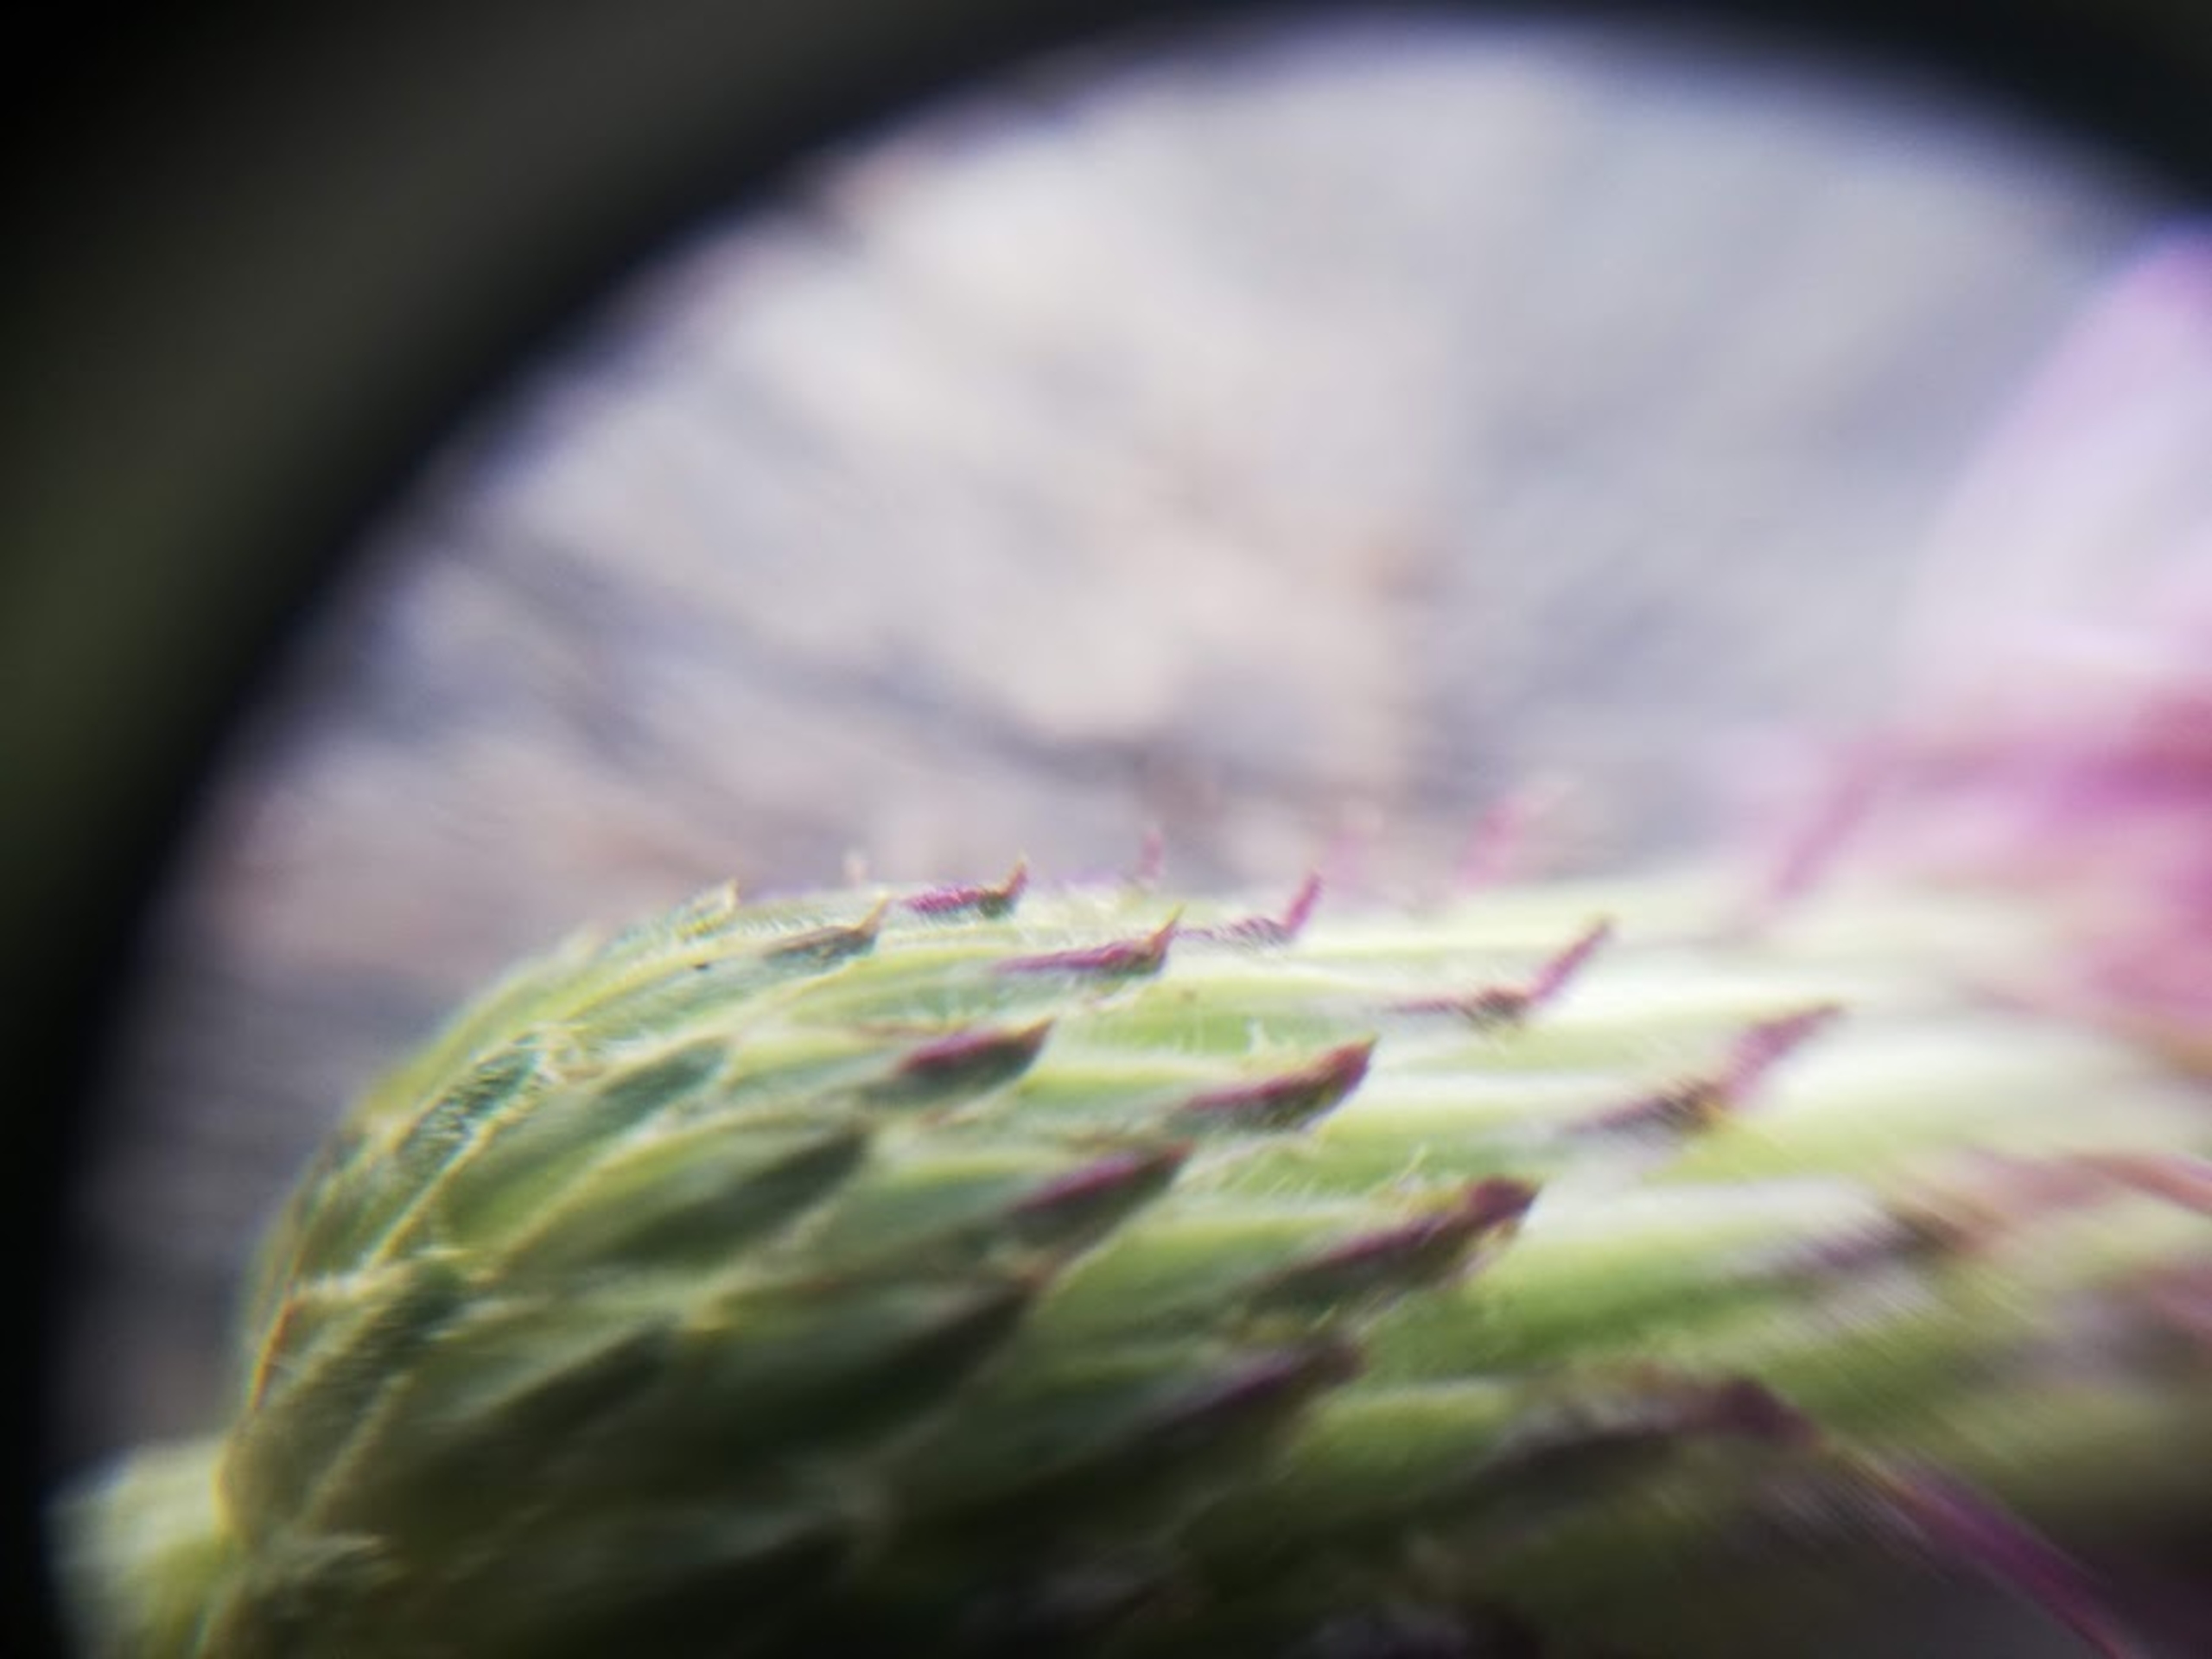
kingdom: Plantae
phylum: Tracheophyta
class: Magnoliopsida
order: Asterales
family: Asteraceae
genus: Cirsium
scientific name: Cirsium arvense
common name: Ager-tidsel
